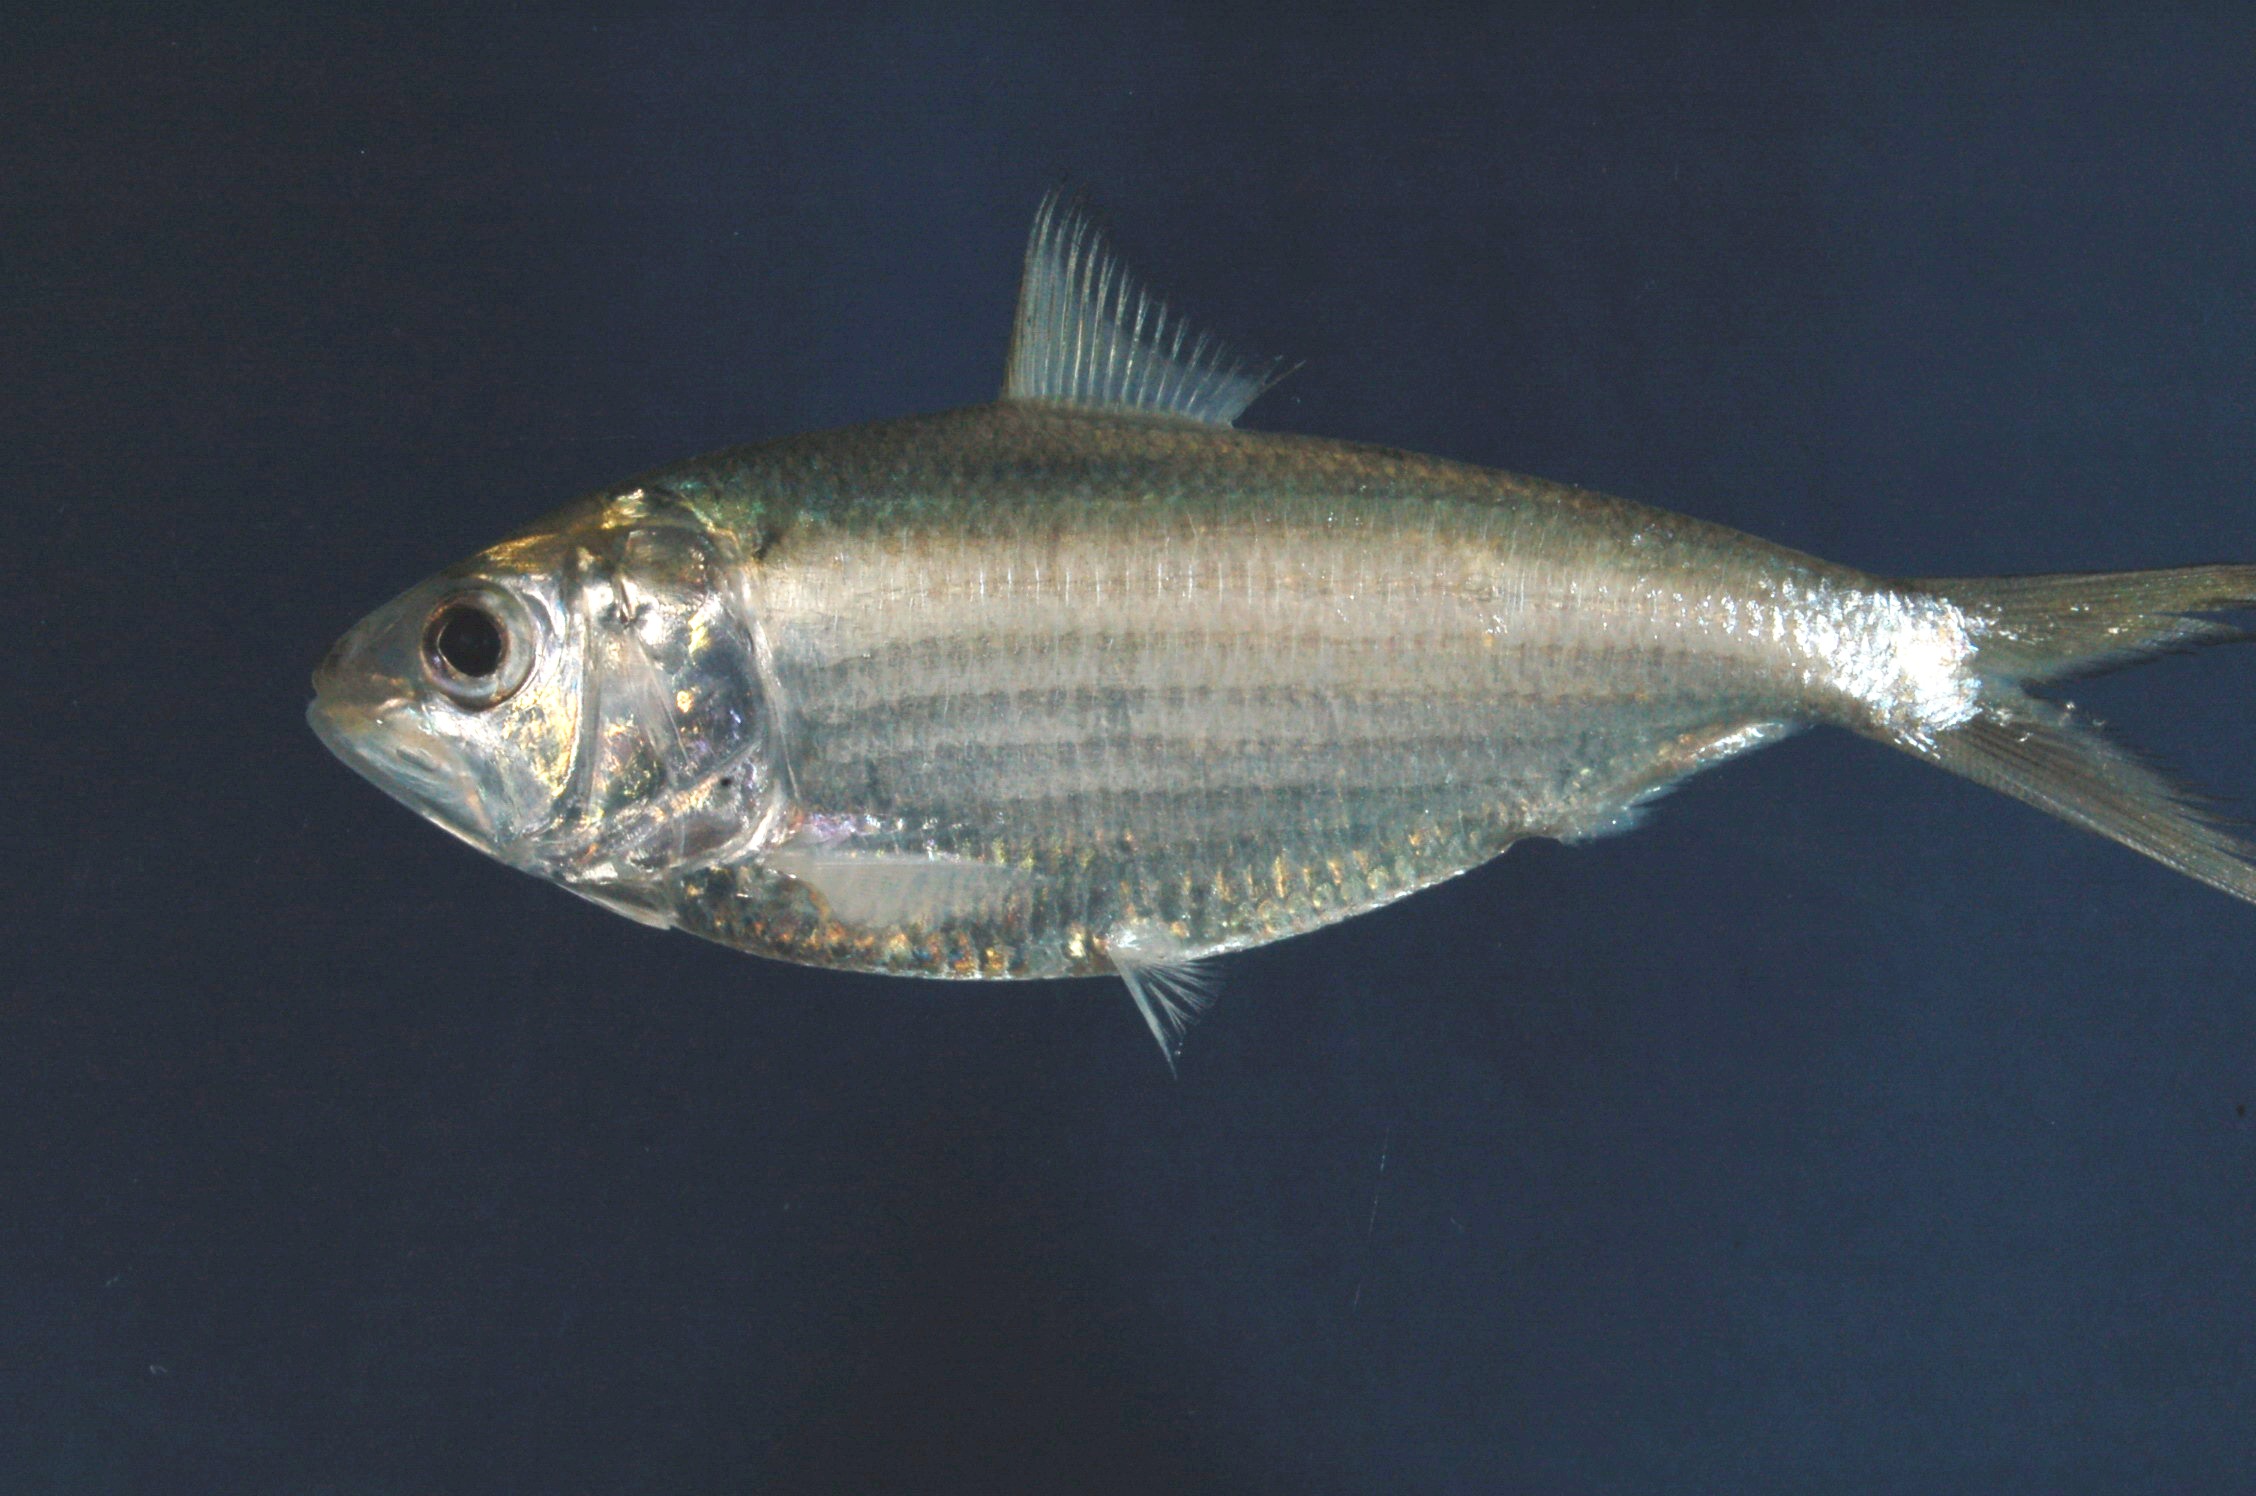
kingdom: Animalia
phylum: Chordata
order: Clupeiformes
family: Clupeidae
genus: Hilsa
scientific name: Hilsa kelee
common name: Kelee shad
